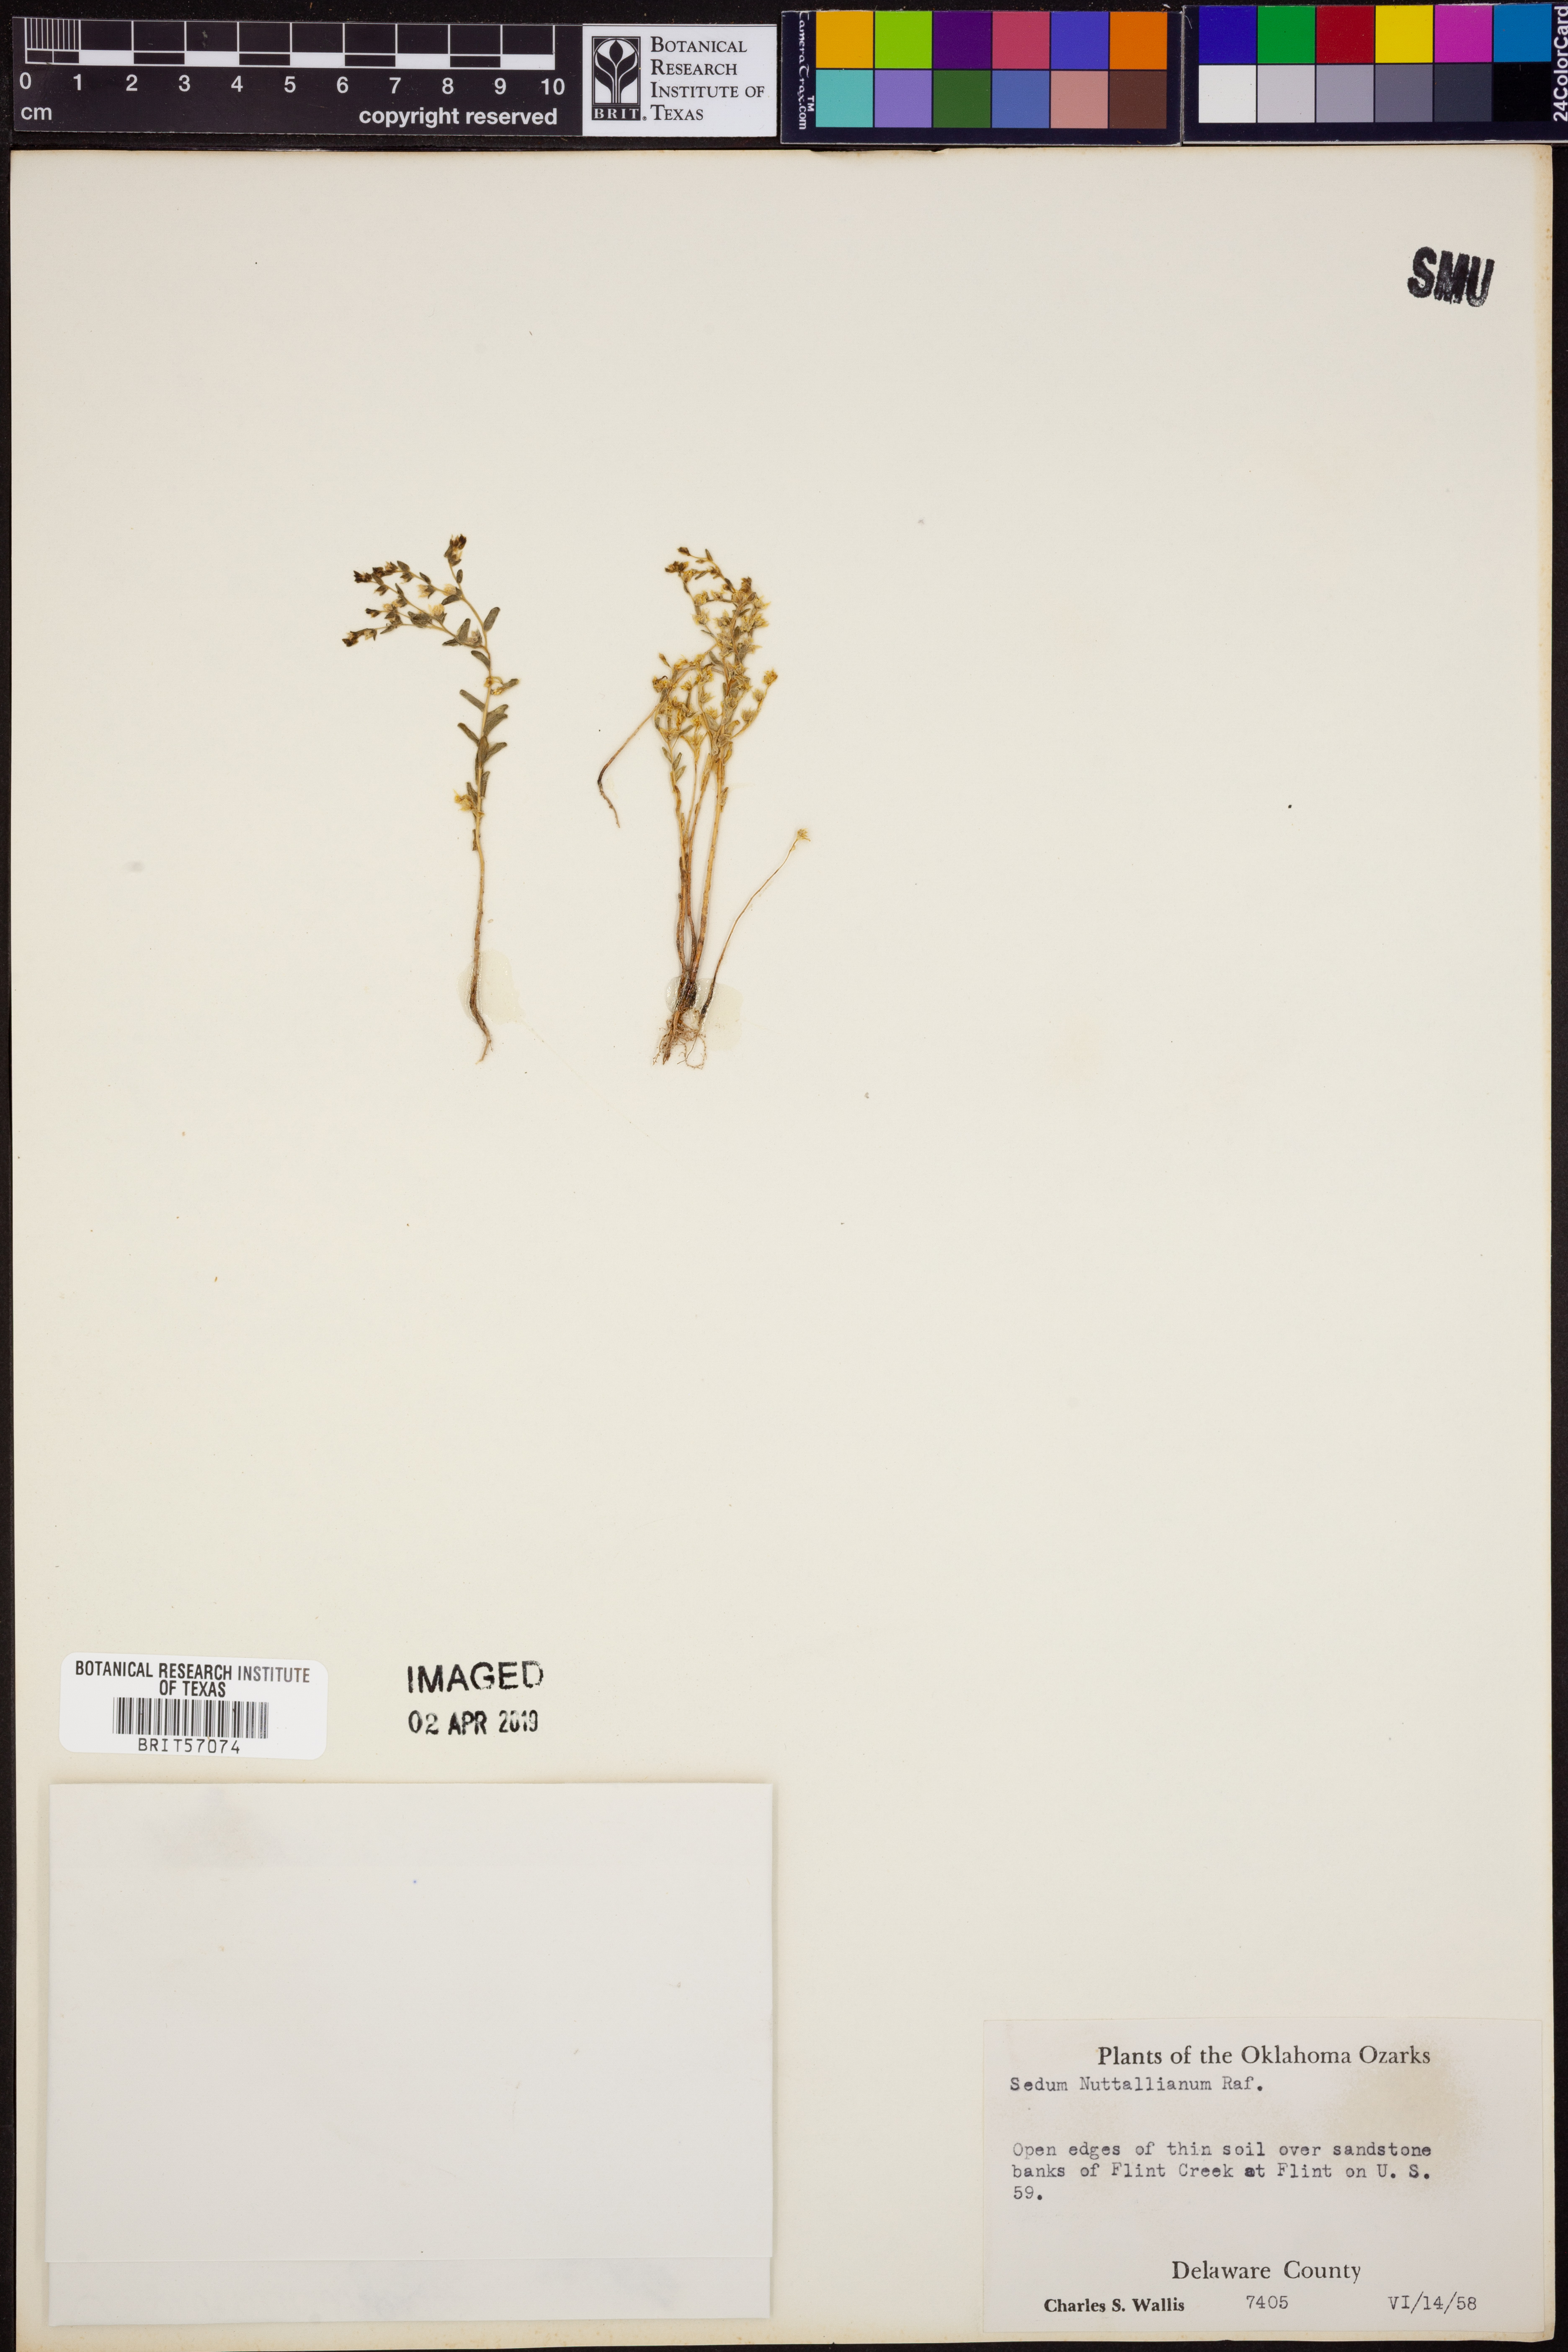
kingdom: Plantae
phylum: Tracheophyta
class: Magnoliopsida
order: Saxifragales
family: Crassulaceae
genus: Sedum
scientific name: Sedum nuttallii
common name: Yellow stonecrop
